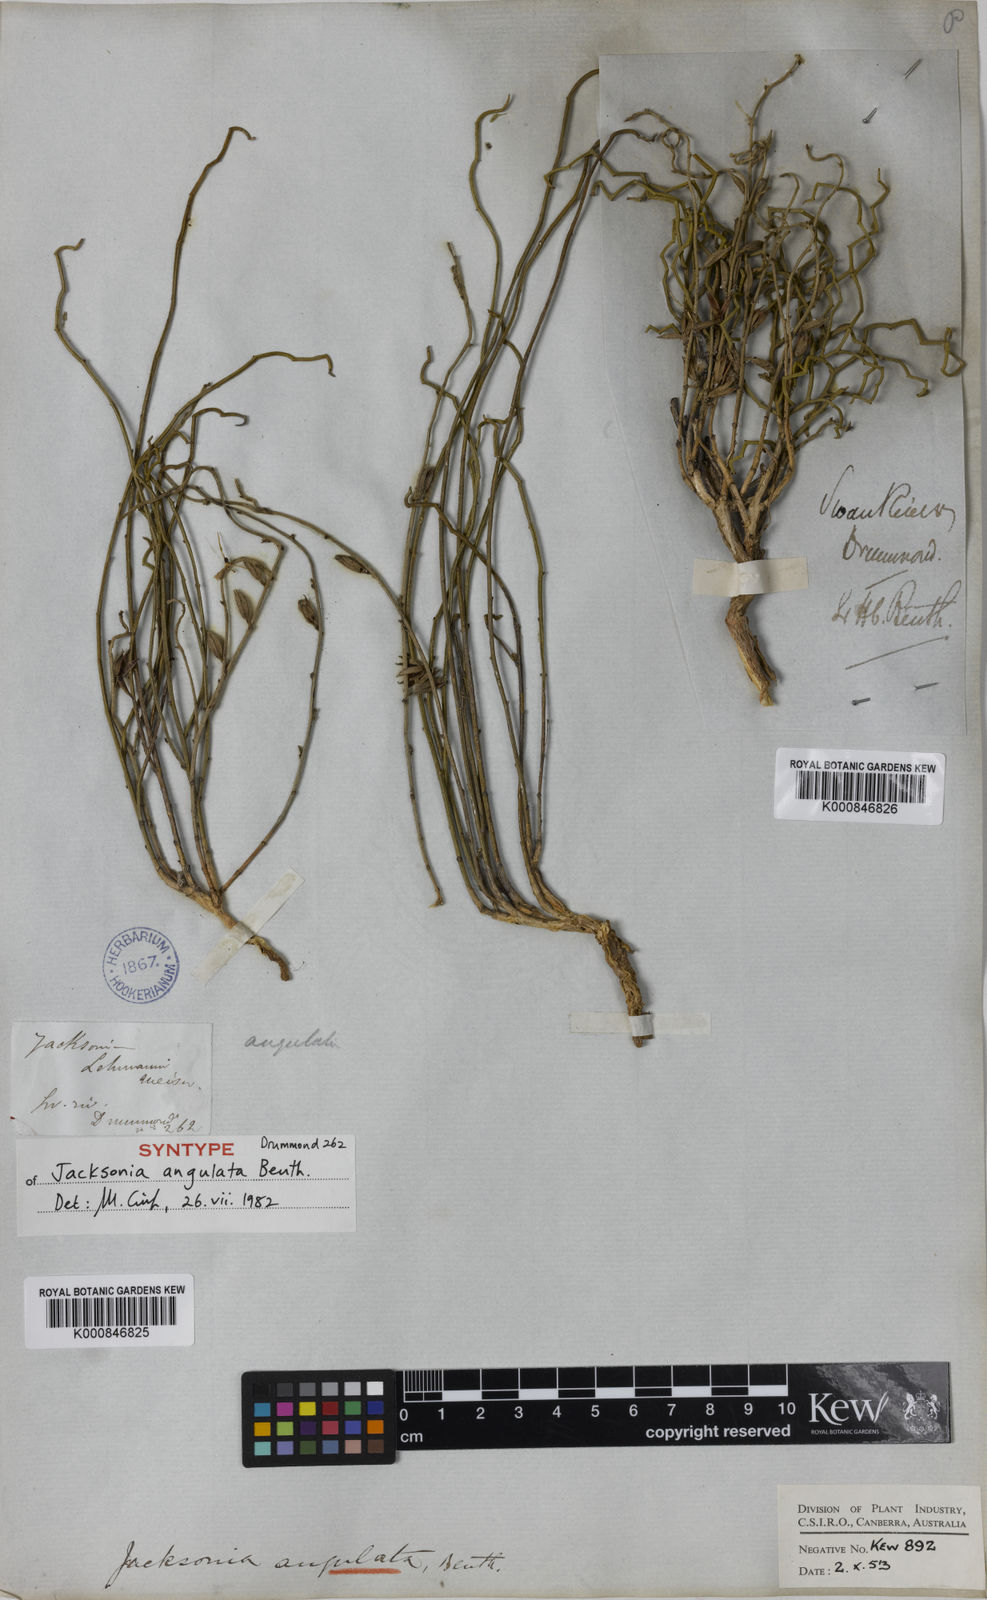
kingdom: Plantae
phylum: Tracheophyta
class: Magnoliopsida
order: Fabales
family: Fabaceae
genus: Jacksonia
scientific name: Jacksonia angulata
